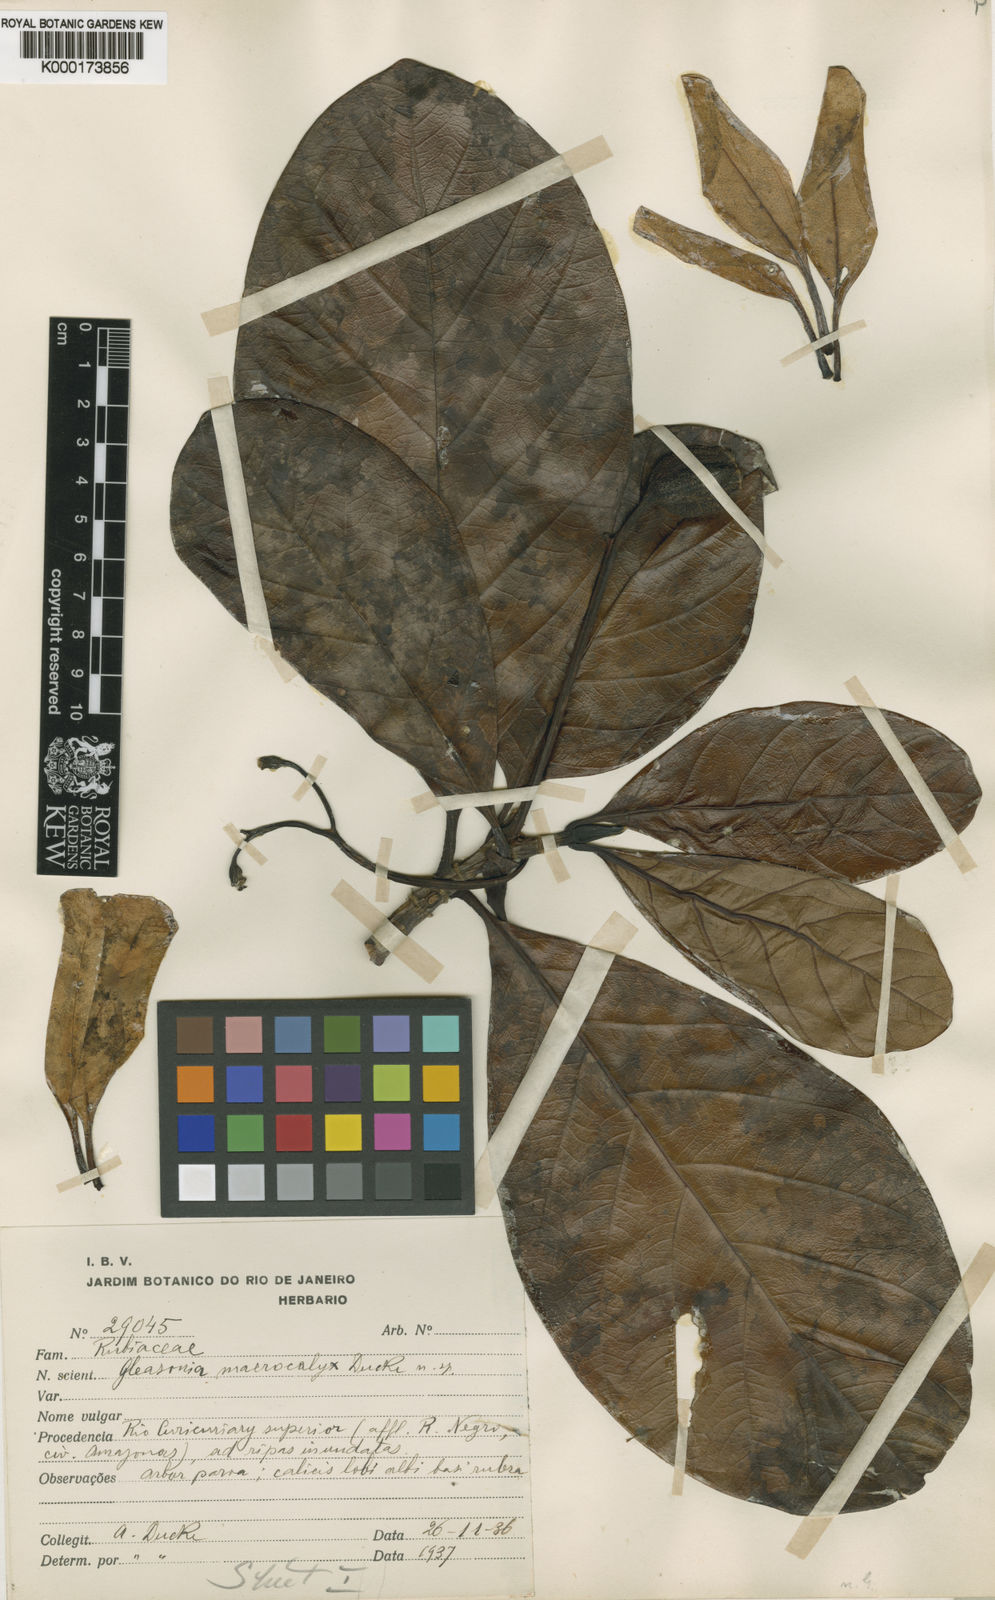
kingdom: Plantae
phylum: Tracheophyta
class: Magnoliopsida
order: Gentianales
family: Rubiaceae
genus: Gleasonia
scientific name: Gleasonia macrocalyx
